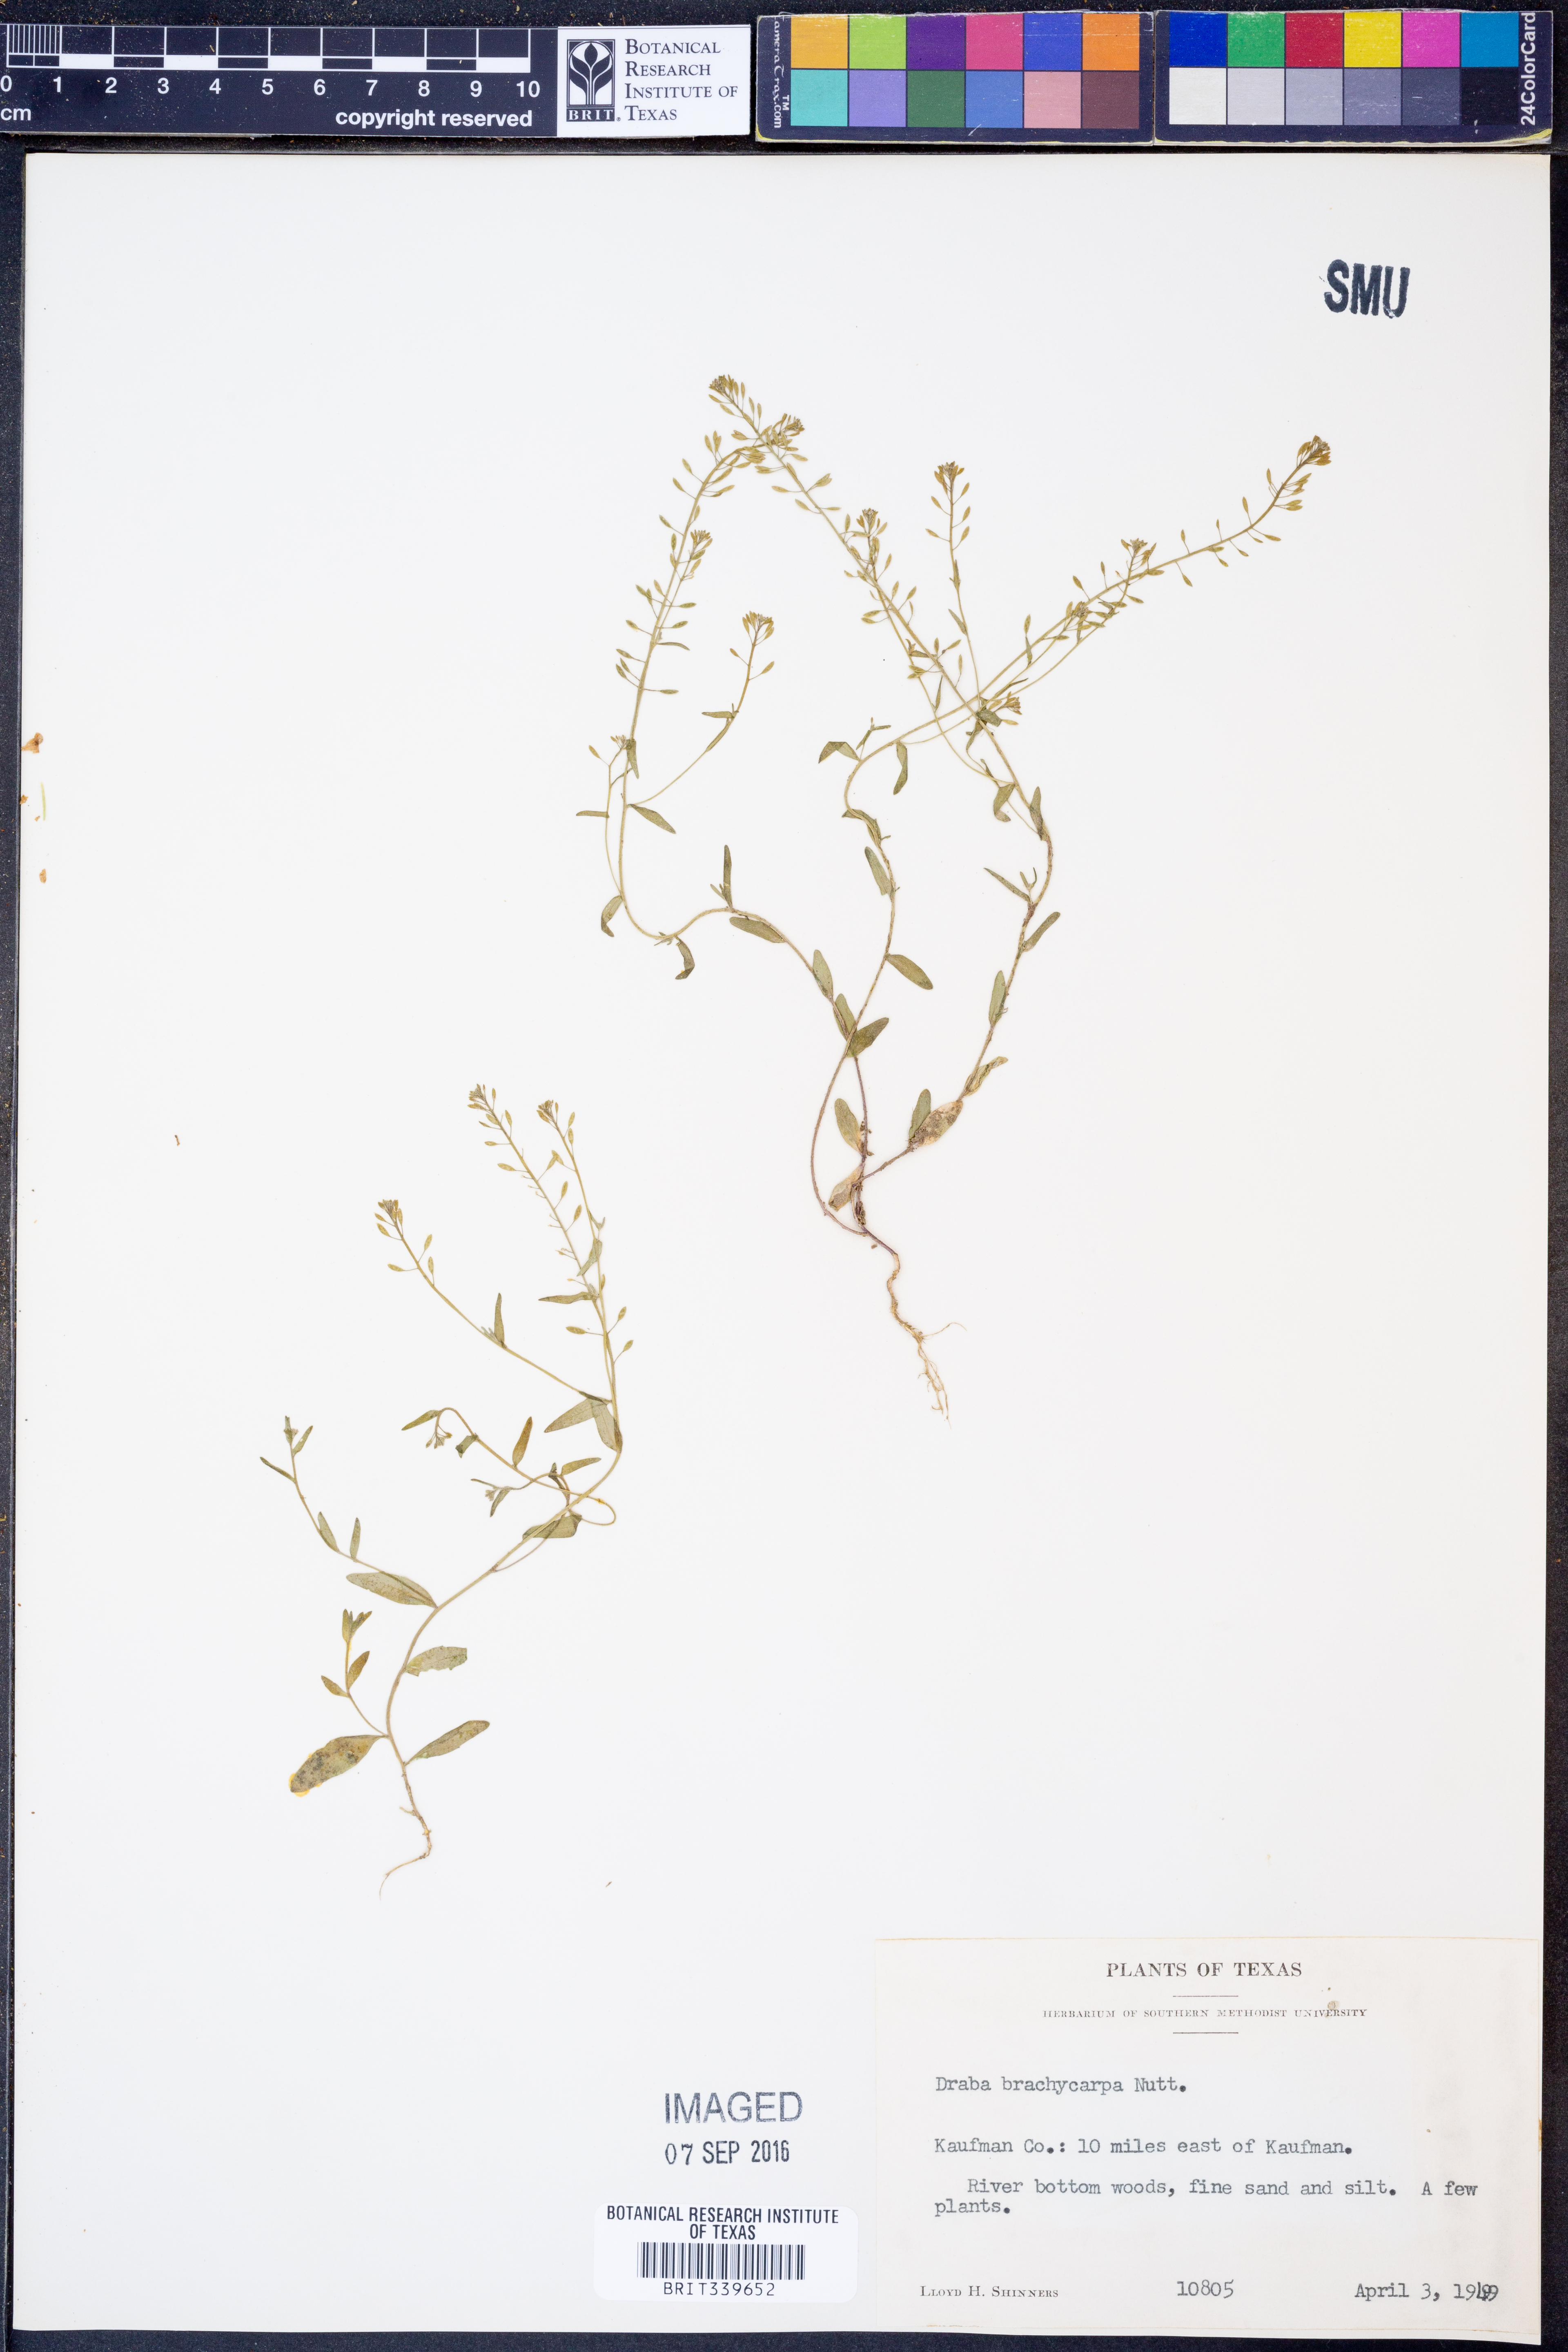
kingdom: Plantae
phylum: Tracheophyta
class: Magnoliopsida
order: Brassicales
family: Brassicaceae
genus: Abdra
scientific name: Abdra brachycarpa
